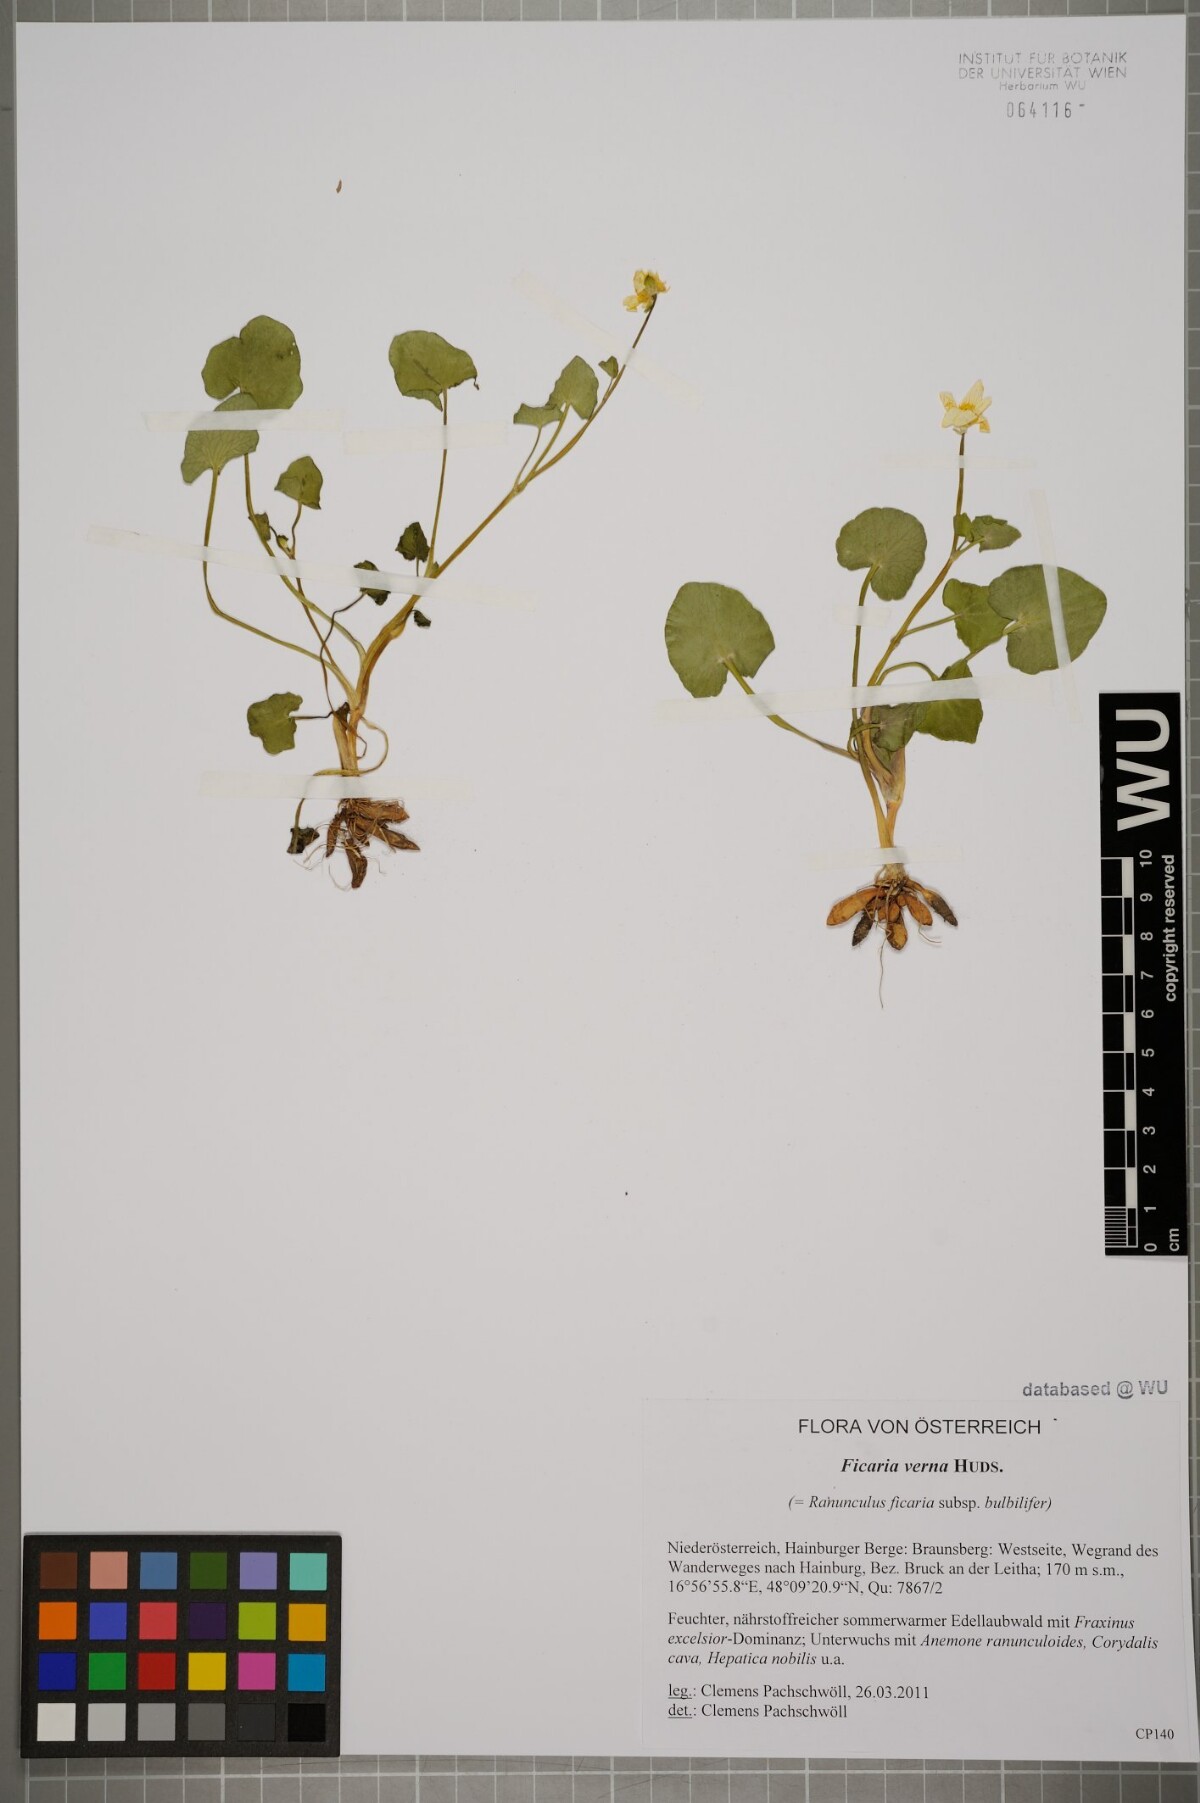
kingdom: Plantae
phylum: Tracheophyta
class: Magnoliopsida
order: Ranunculales
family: Ranunculaceae
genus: Ficaria
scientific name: Ficaria verna
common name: Lesser celandine
